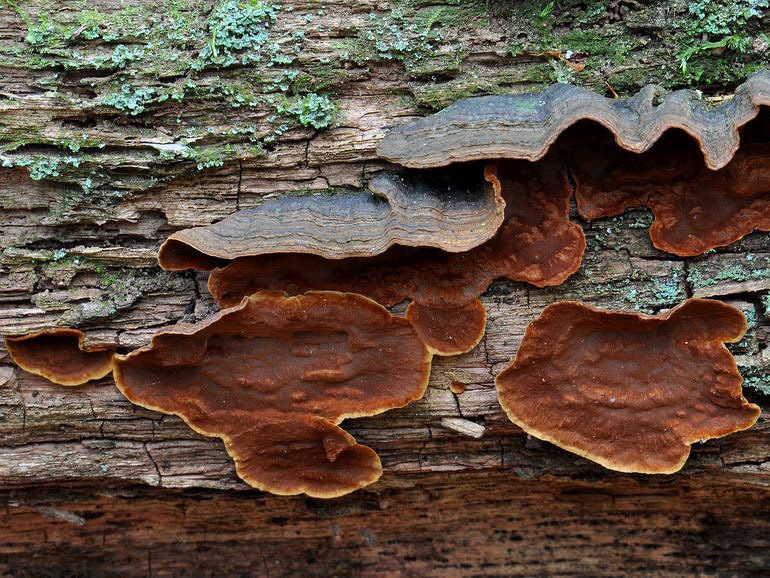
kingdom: Fungi
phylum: Basidiomycota
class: Agaricomycetes
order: Hymenochaetales
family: Hymenochaetaceae
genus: Hymenochaete
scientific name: Hymenochaete rubiginosa
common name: stiv ruslædersvamp
